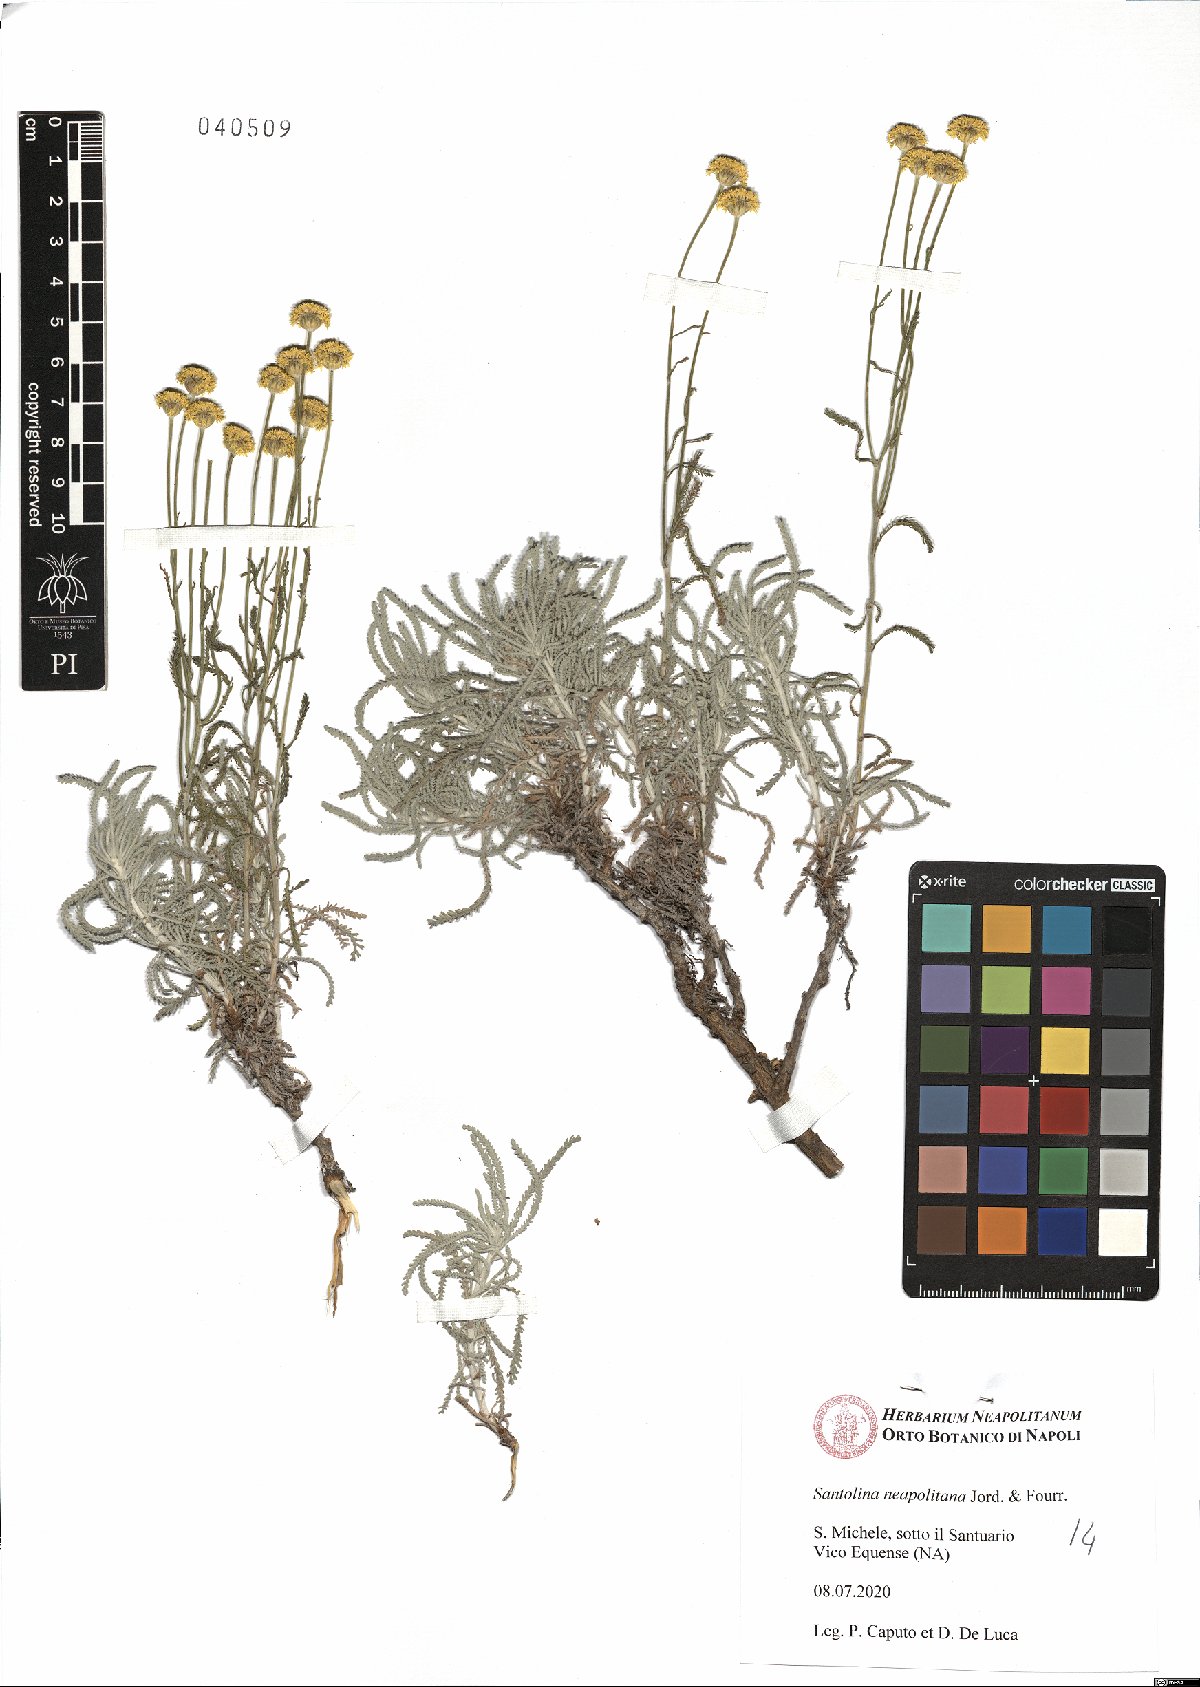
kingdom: Plantae
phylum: Tracheophyta
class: Magnoliopsida
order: Asterales
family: Asteraceae
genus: Santolina
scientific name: Santolina neapolitana
